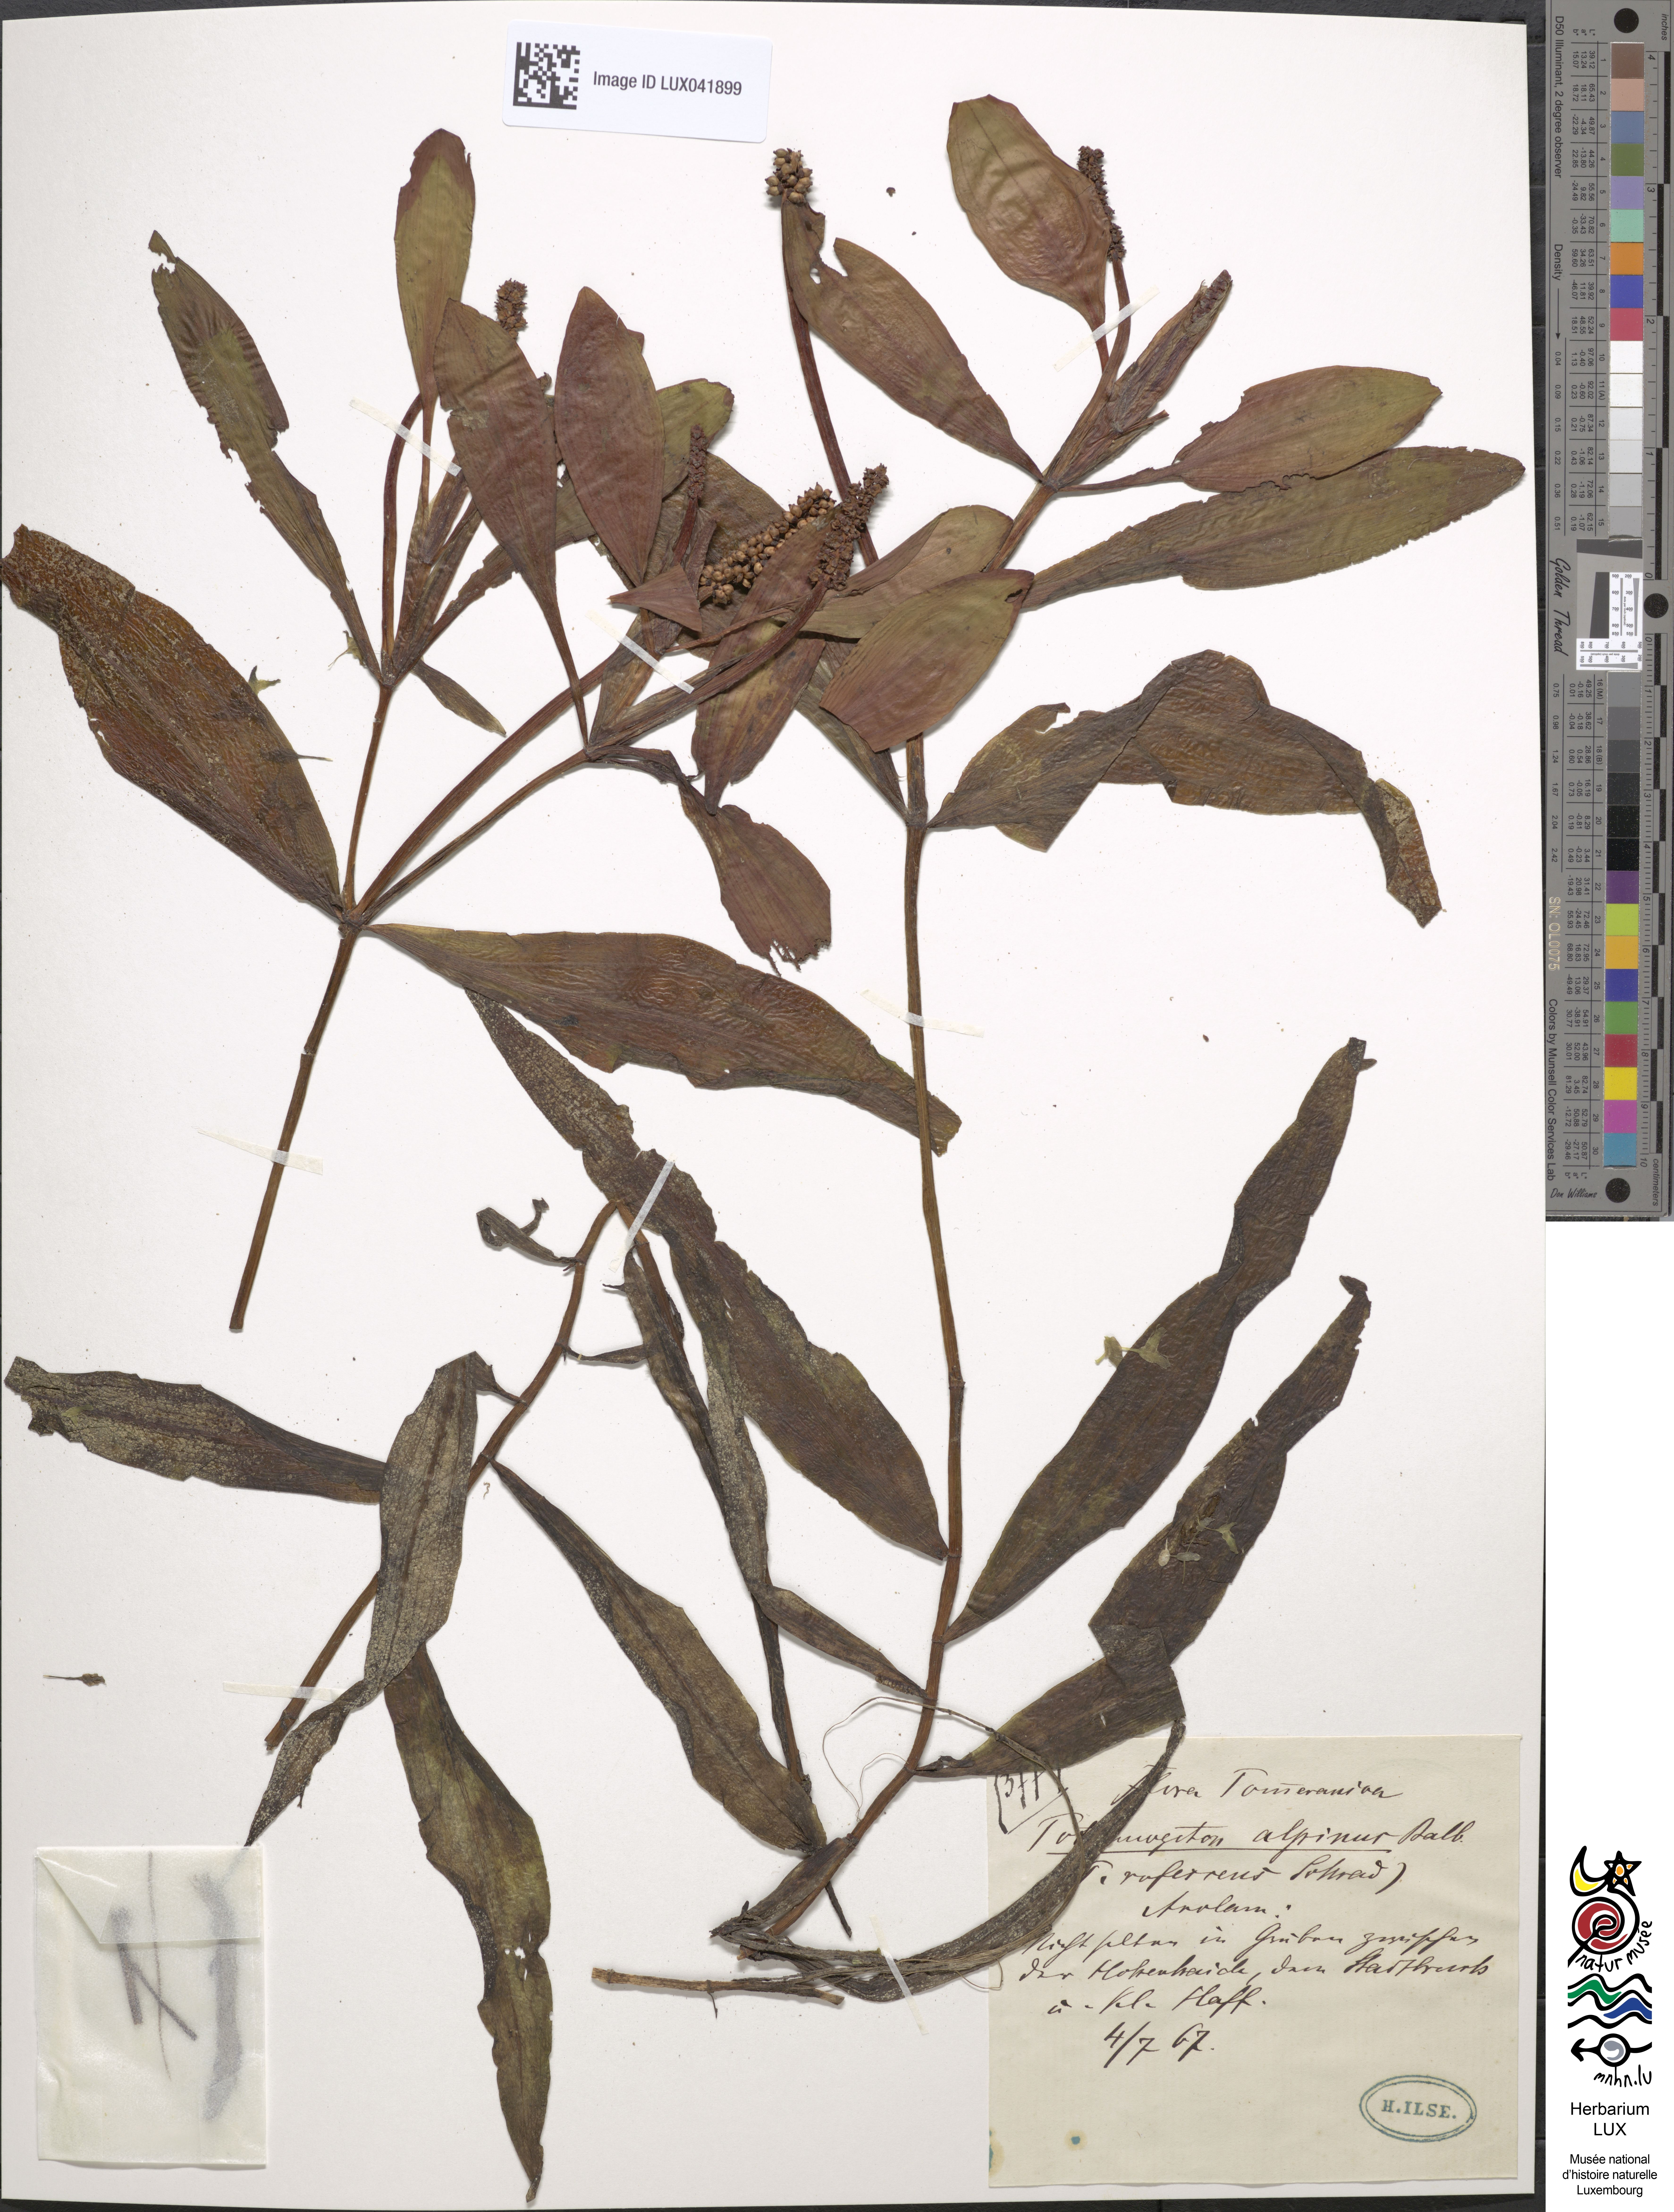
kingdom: Plantae
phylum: Tracheophyta
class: Liliopsida
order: Alismatales
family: Potamogetonaceae
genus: Potamogeton
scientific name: Potamogeton alpinus
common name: Red pondweed
